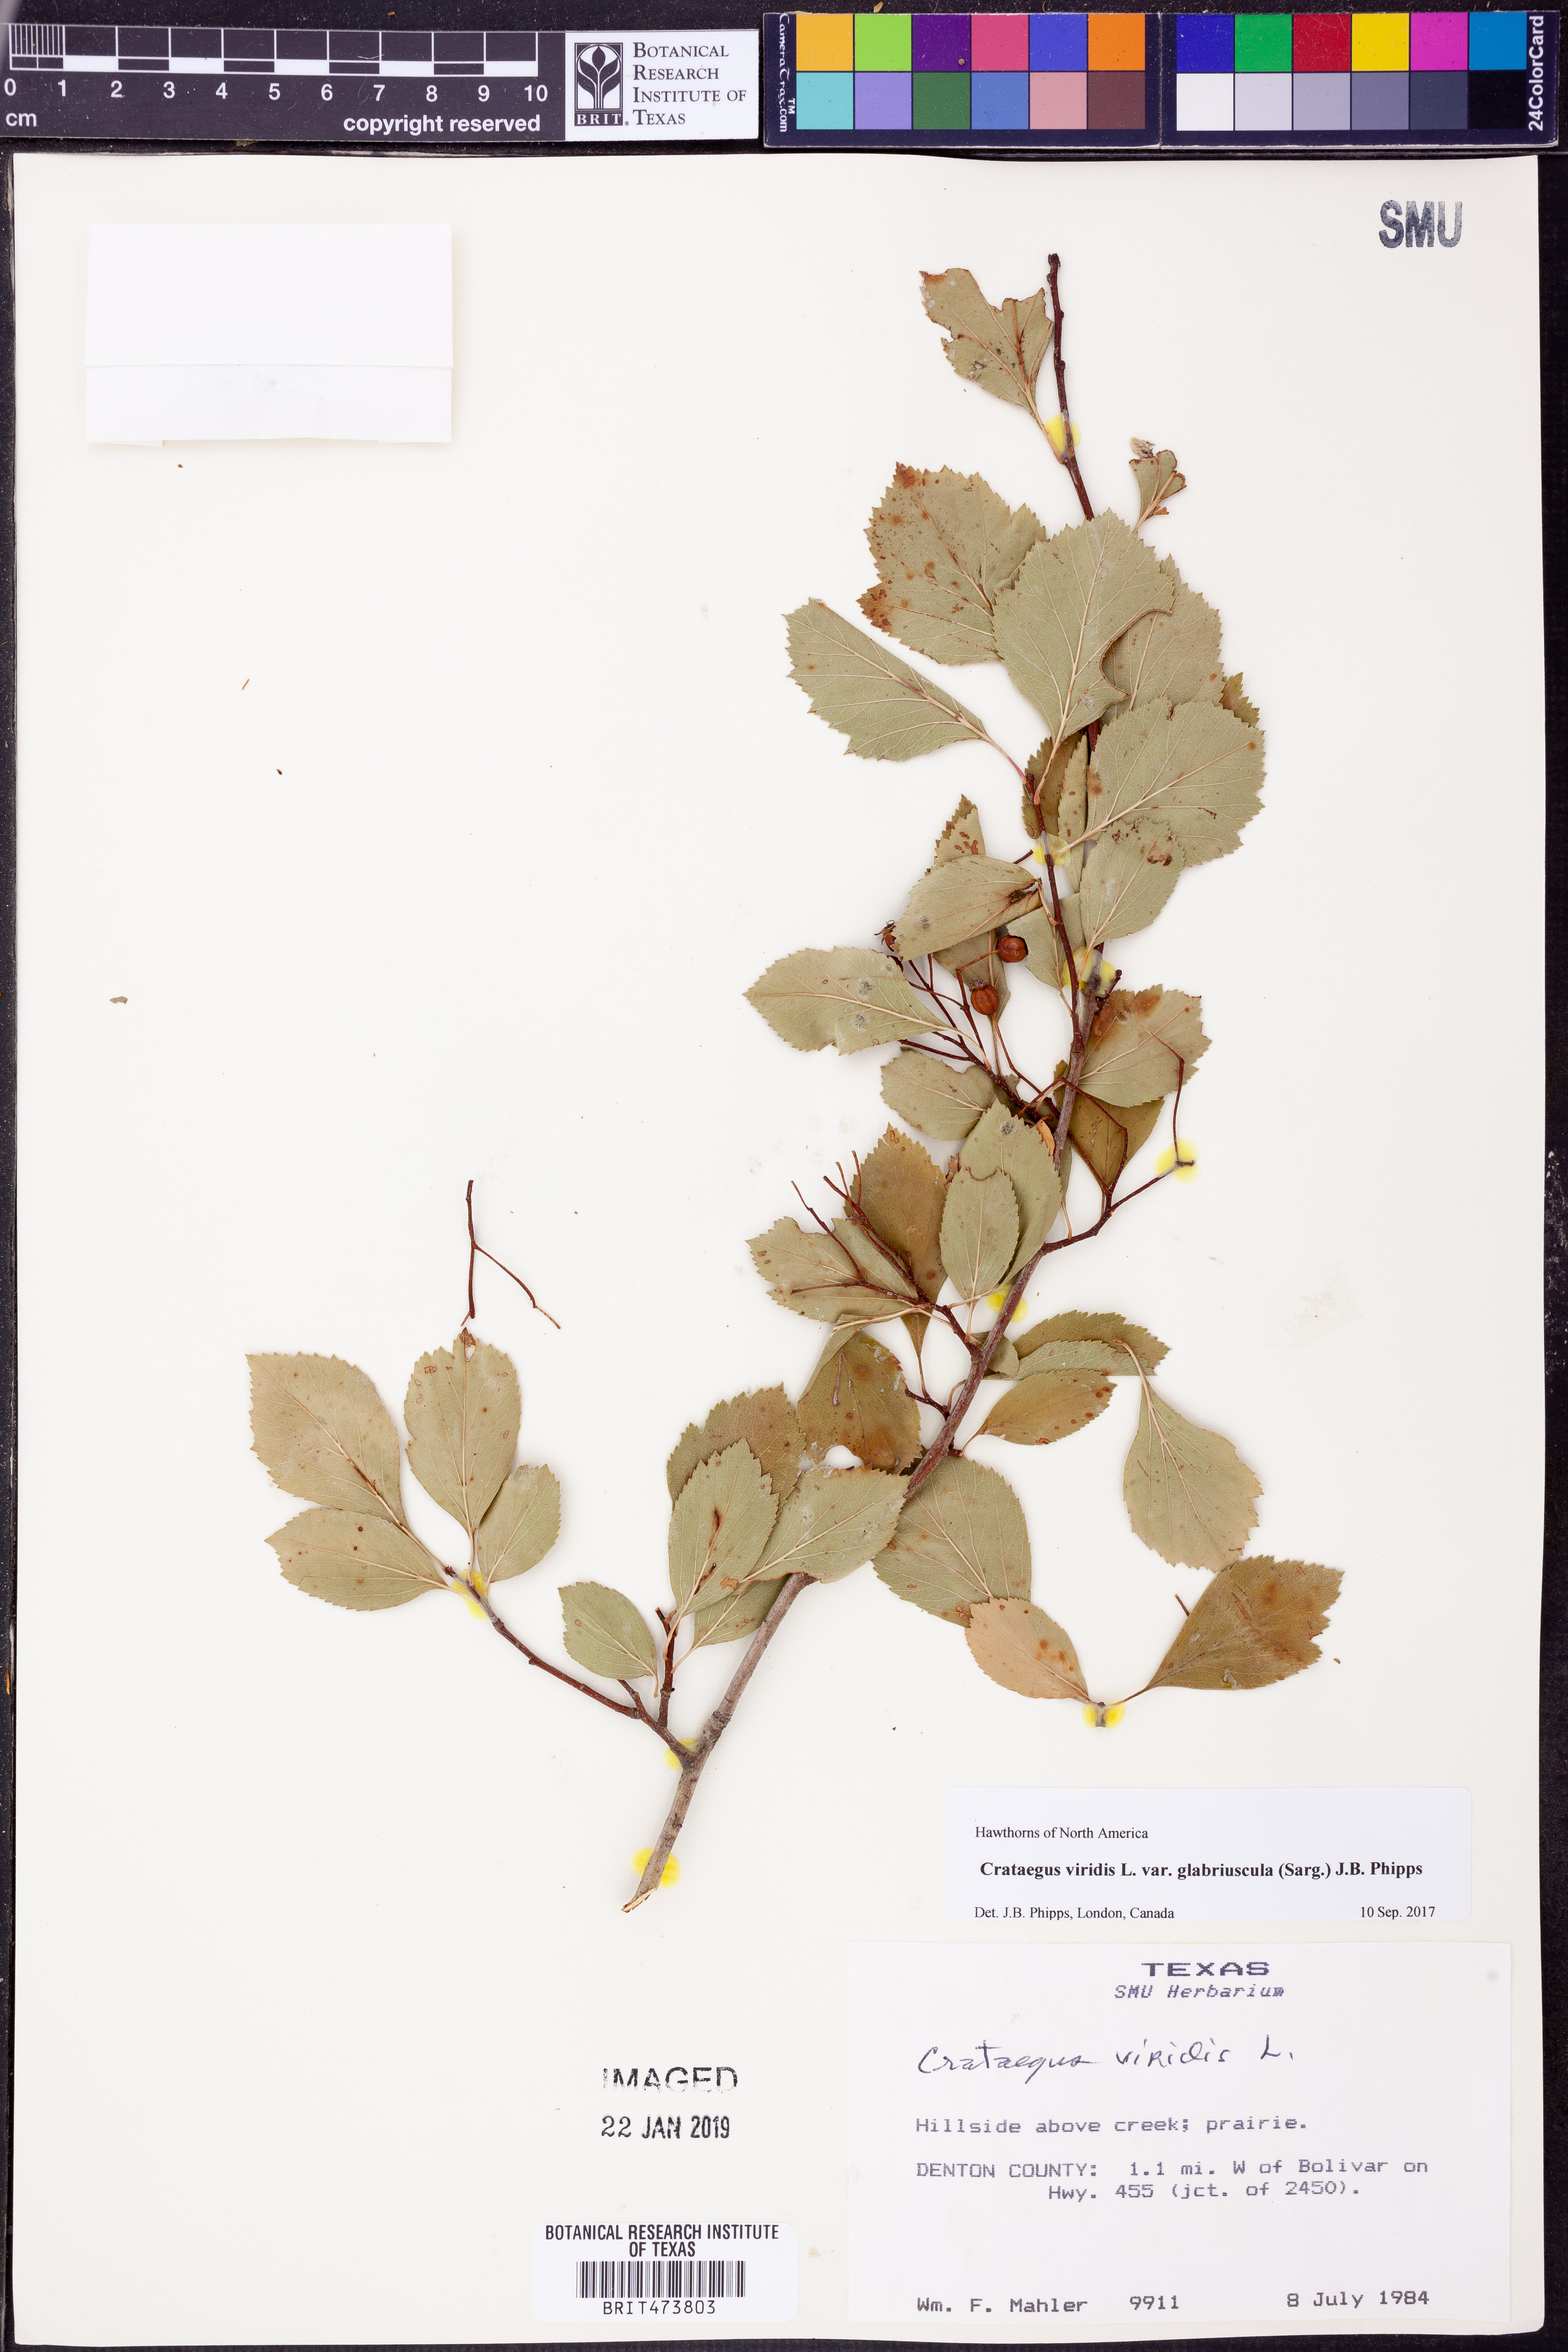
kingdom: Plantae
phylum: Tracheophyta
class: Magnoliopsida
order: Rosales
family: Rosaceae
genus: Crataegus
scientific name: Crataegus viridis
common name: Southernthorn
